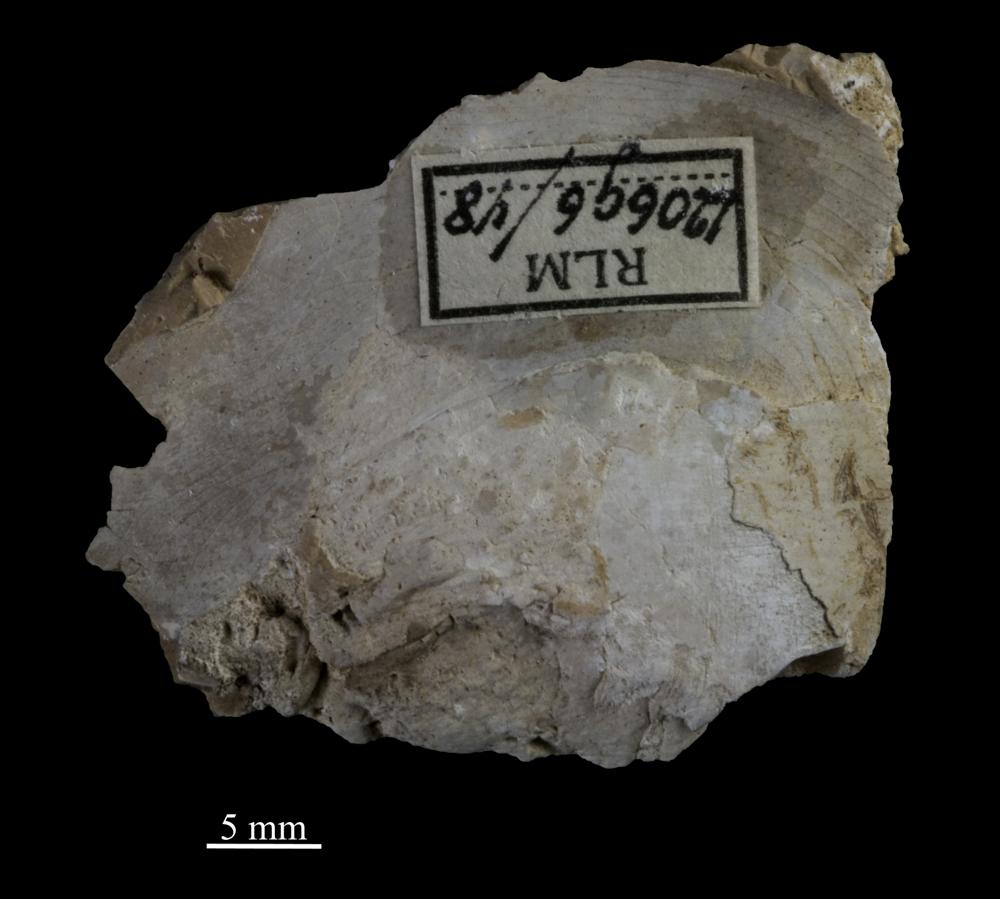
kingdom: Animalia
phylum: Arthropoda
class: Trilobita
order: Asaphida
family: Asaphidae
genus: Isotelus
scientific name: Isotelus
